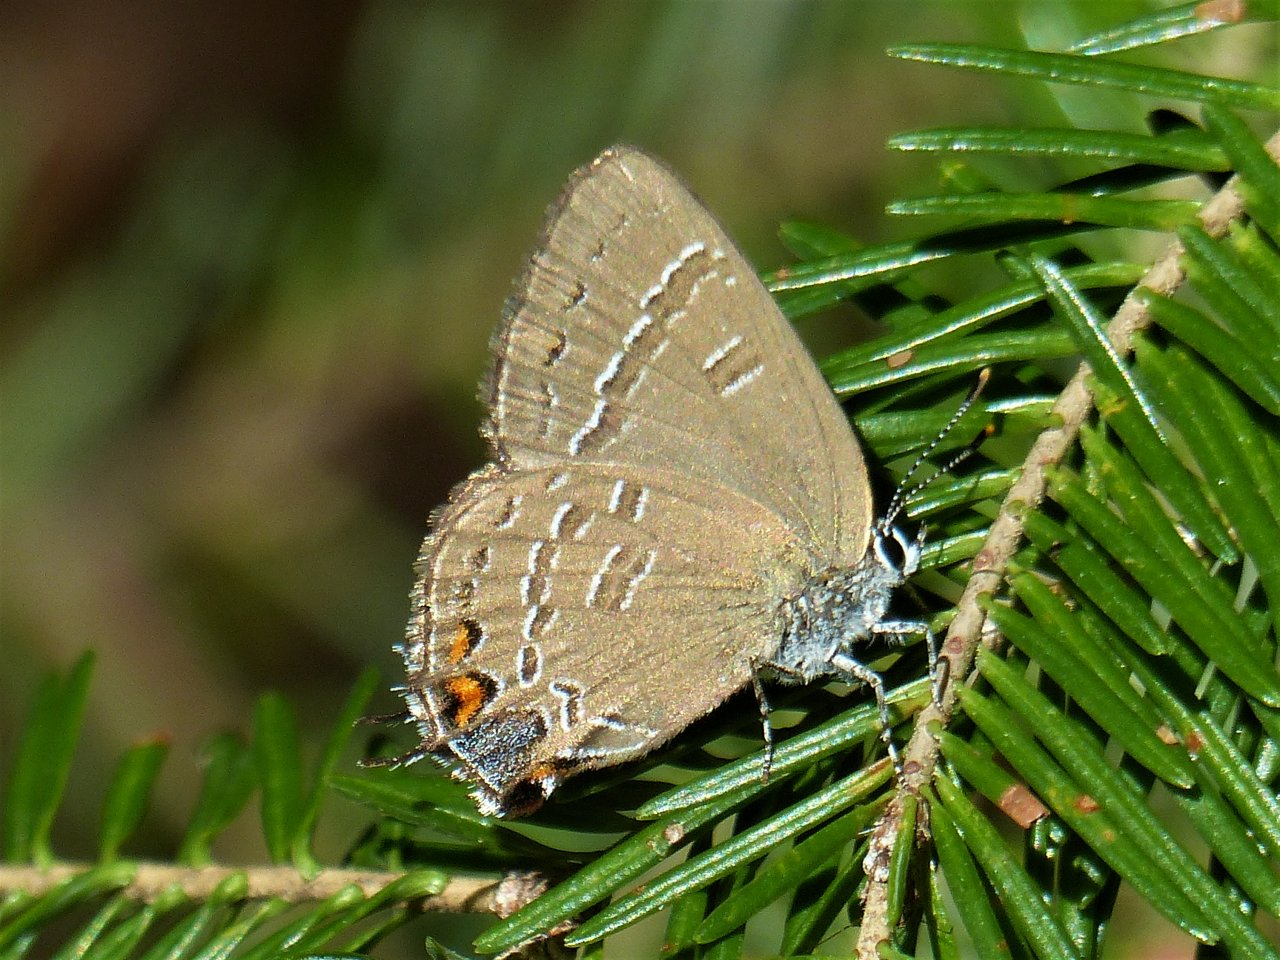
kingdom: Animalia
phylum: Arthropoda
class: Insecta
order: Lepidoptera
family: Lycaenidae
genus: Satyrium
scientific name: Satyrium calanus
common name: Banded Hairstreak
